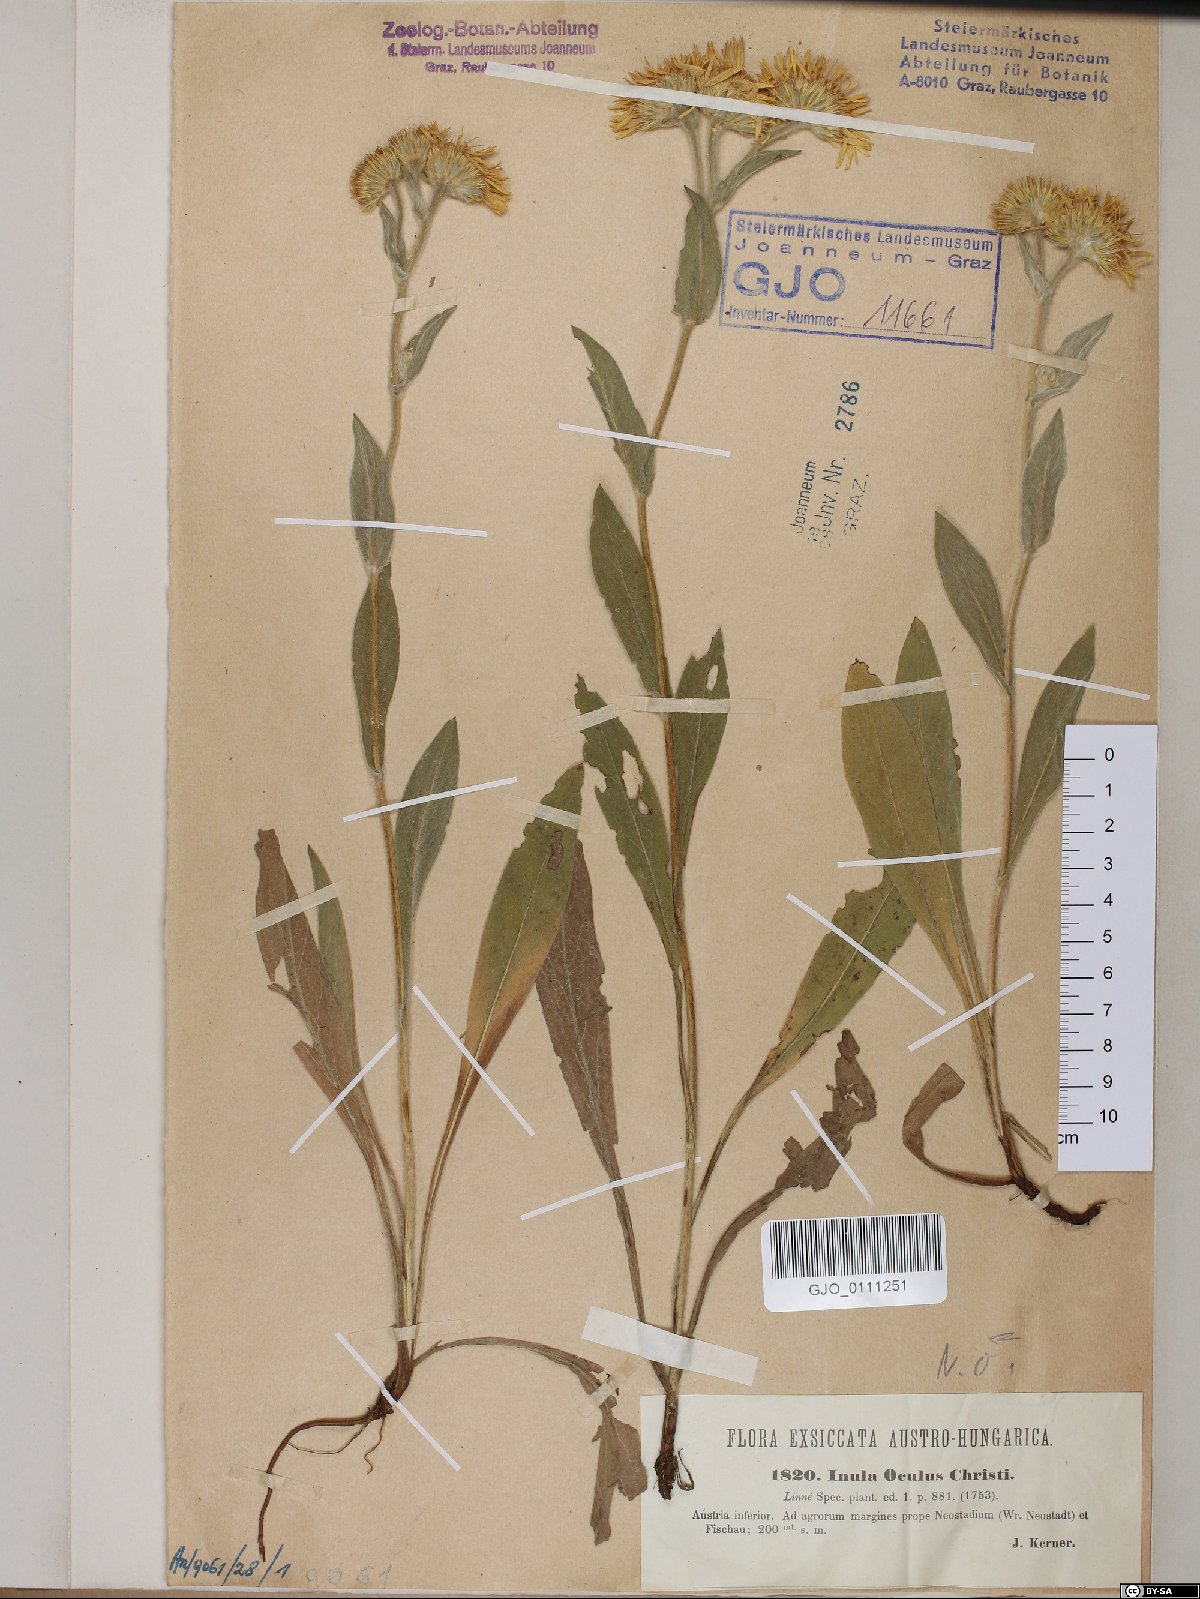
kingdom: Plantae
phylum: Tracheophyta
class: Magnoliopsida
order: Asterales
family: Asteraceae
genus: Pentanema
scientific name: Pentanema oculus-christi
